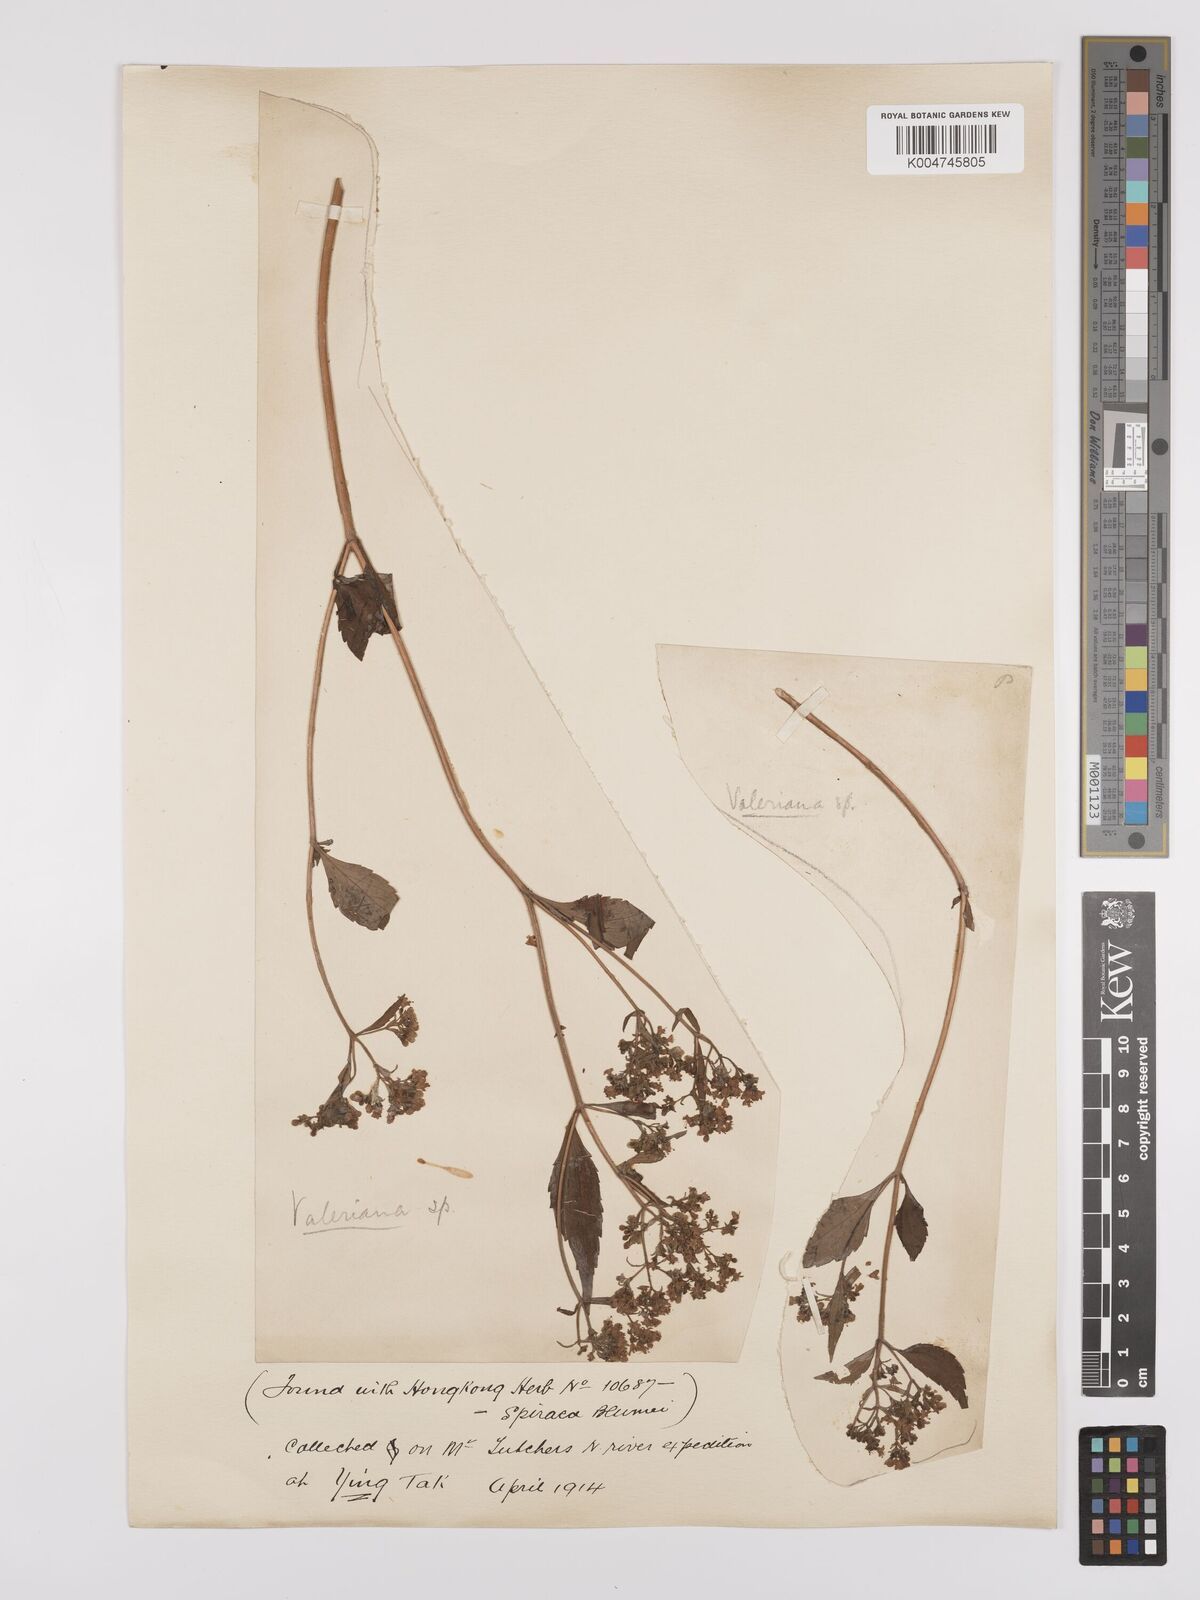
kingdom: Plantae
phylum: Tracheophyta
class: Magnoliopsida
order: Dipsacales
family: Caprifoliaceae
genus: Patrinia
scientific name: Patrinia
